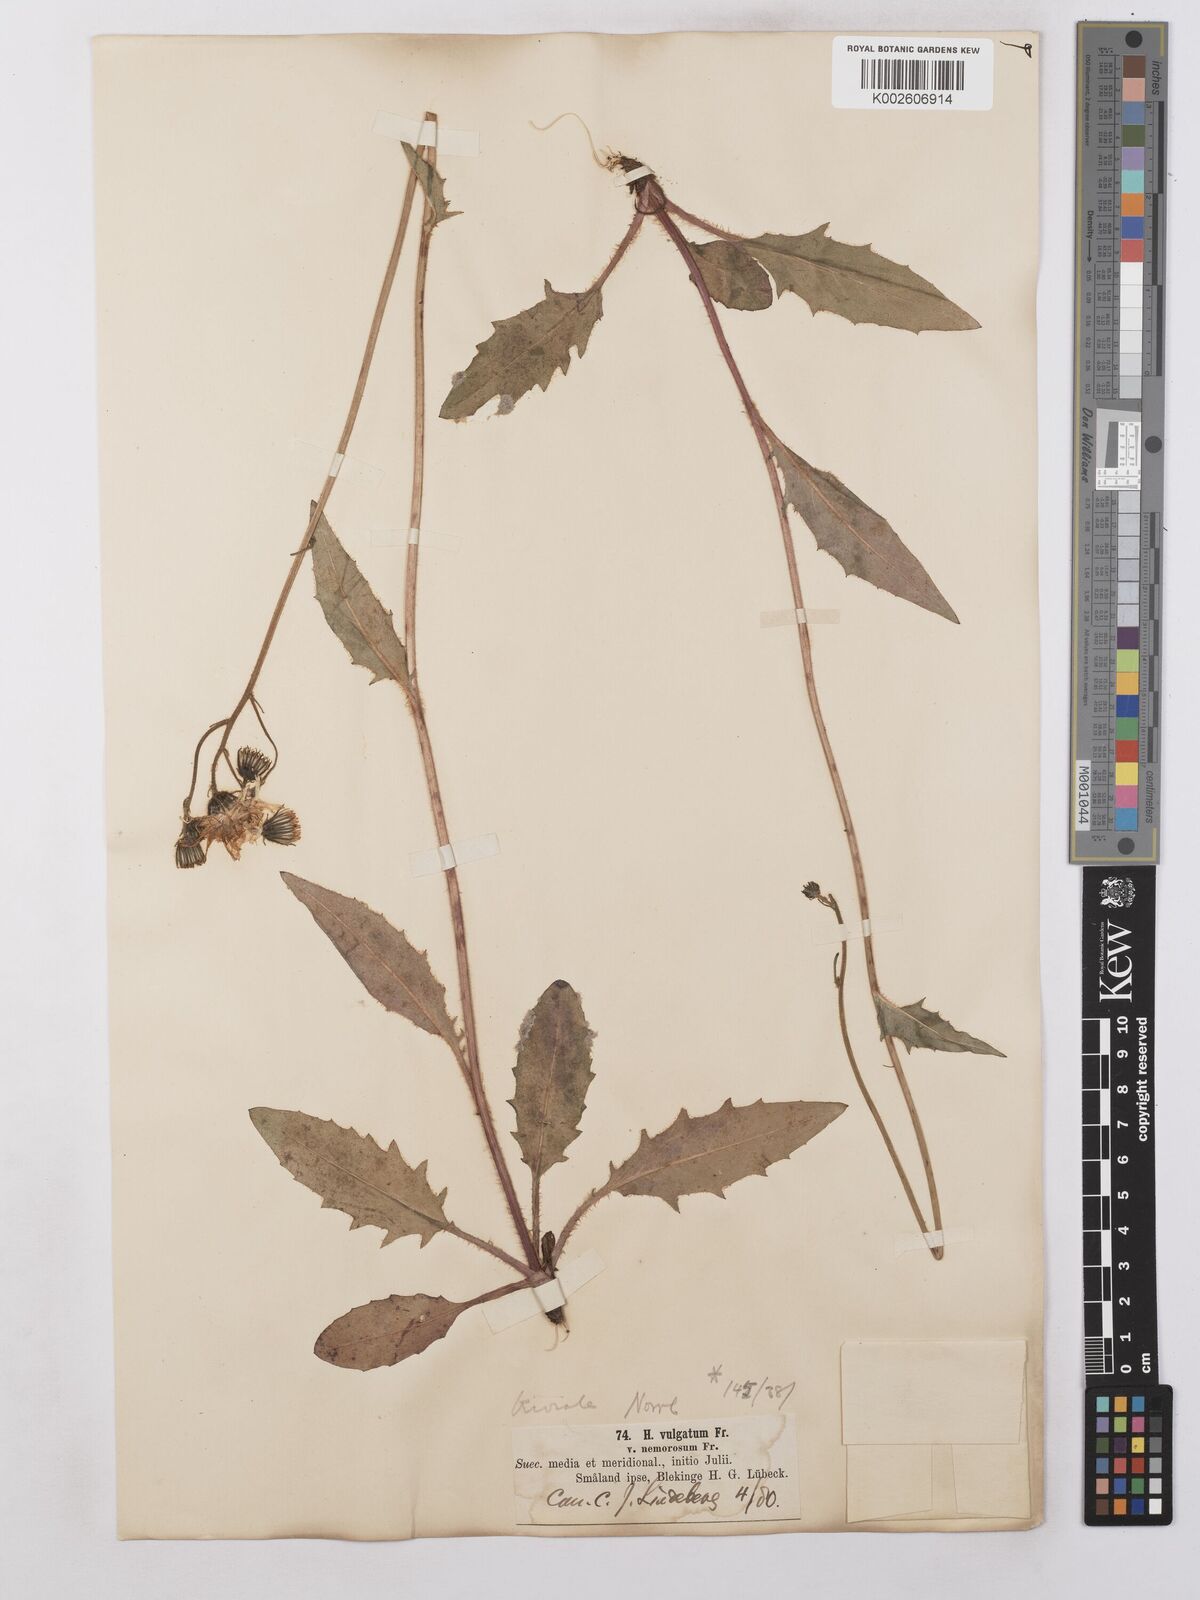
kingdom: Plantae
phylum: Tracheophyta
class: Magnoliopsida
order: Asterales
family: Asteraceae
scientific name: Asteraceae
